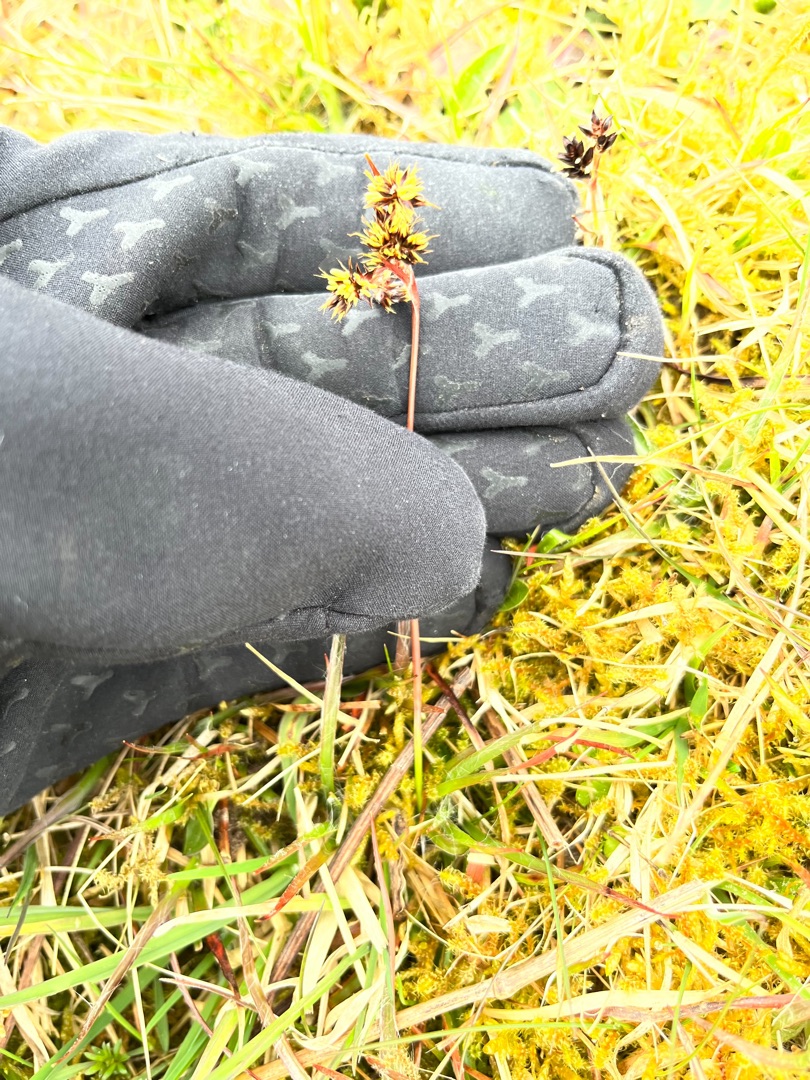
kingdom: Plantae
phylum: Tracheophyta
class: Liliopsida
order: Poales
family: Juncaceae
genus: Luzula
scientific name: Luzula campestris
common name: Mark-frytle
